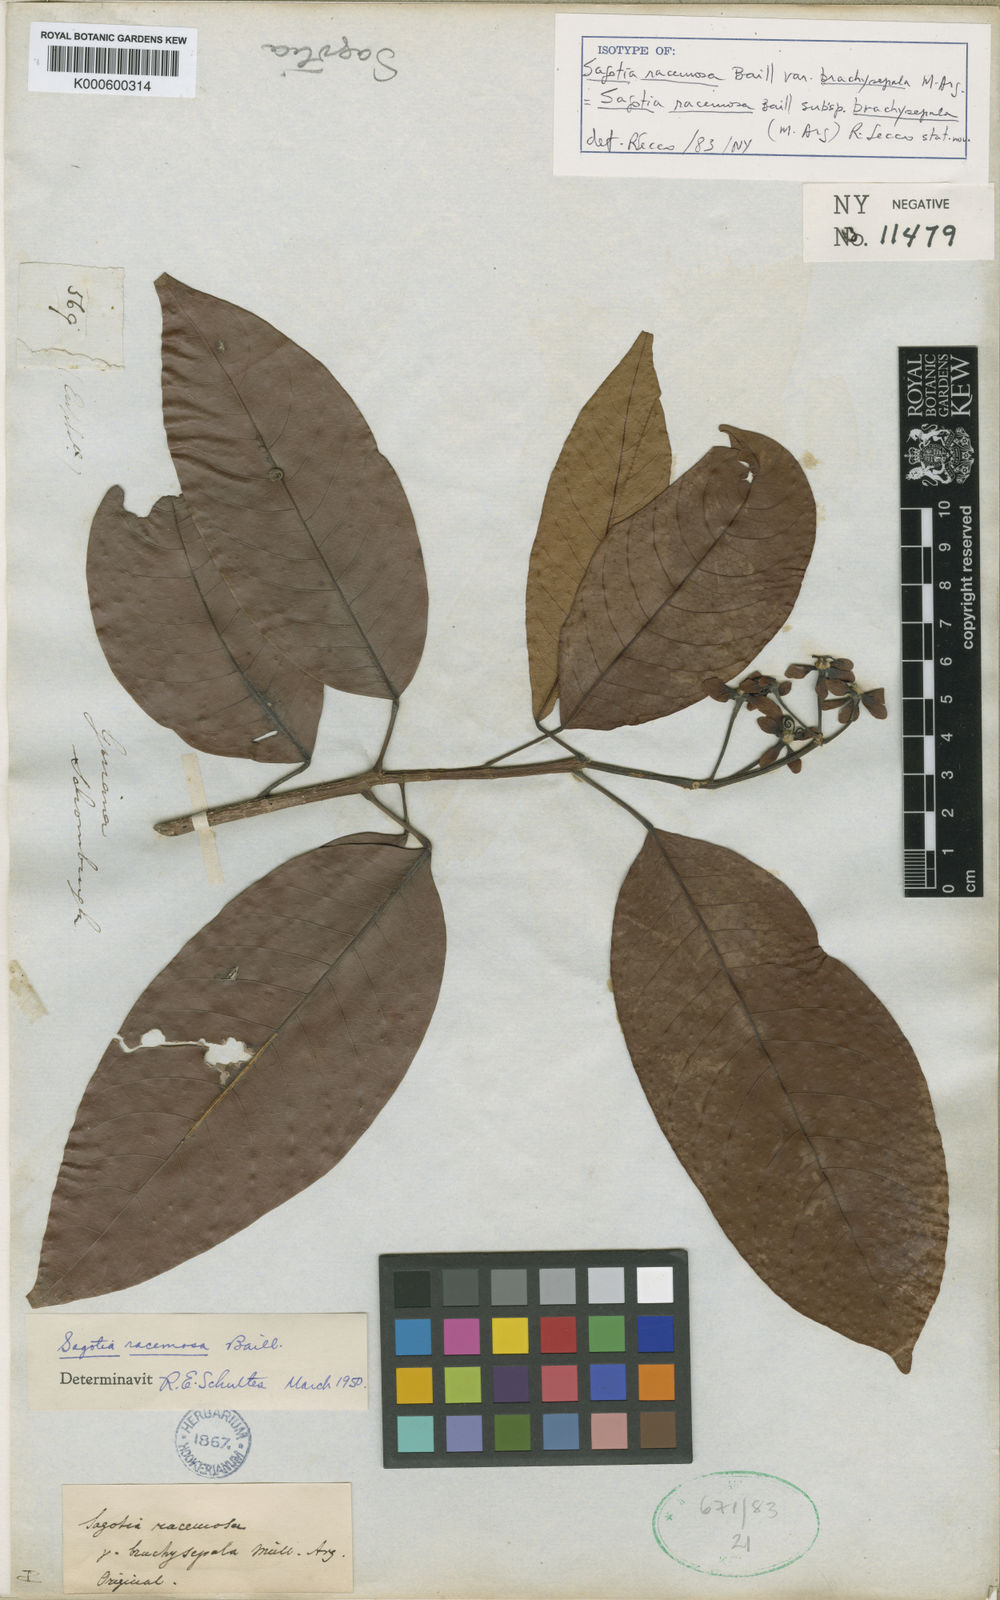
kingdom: Plantae
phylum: Tracheophyta
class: Magnoliopsida
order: Malpighiales
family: Euphorbiaceae
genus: Sagotia
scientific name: Sagotia racemosa
